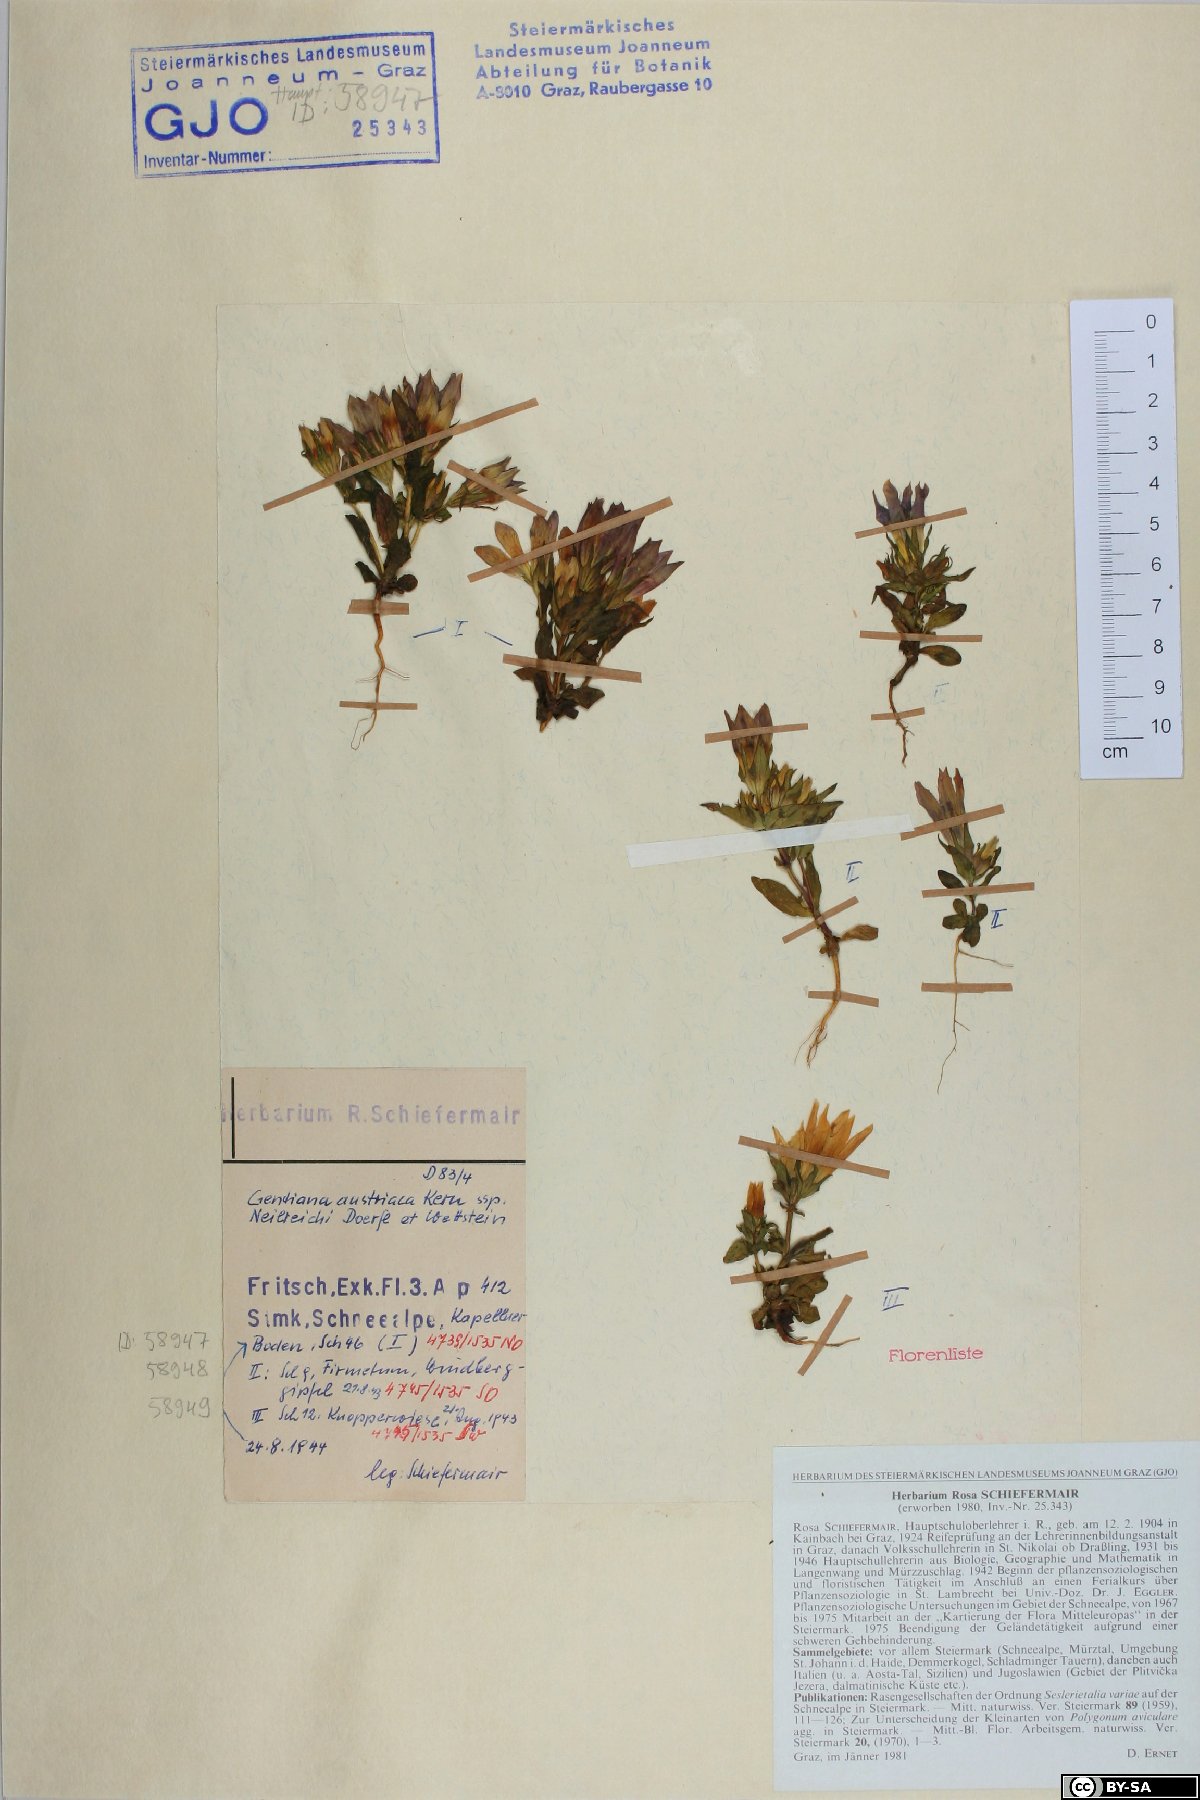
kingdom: Plantae
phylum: Tracheophyta
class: Magnoliopsida
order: Gentianales
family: Gentianaceae
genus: Gentianella
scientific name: Gentianella austriaca
